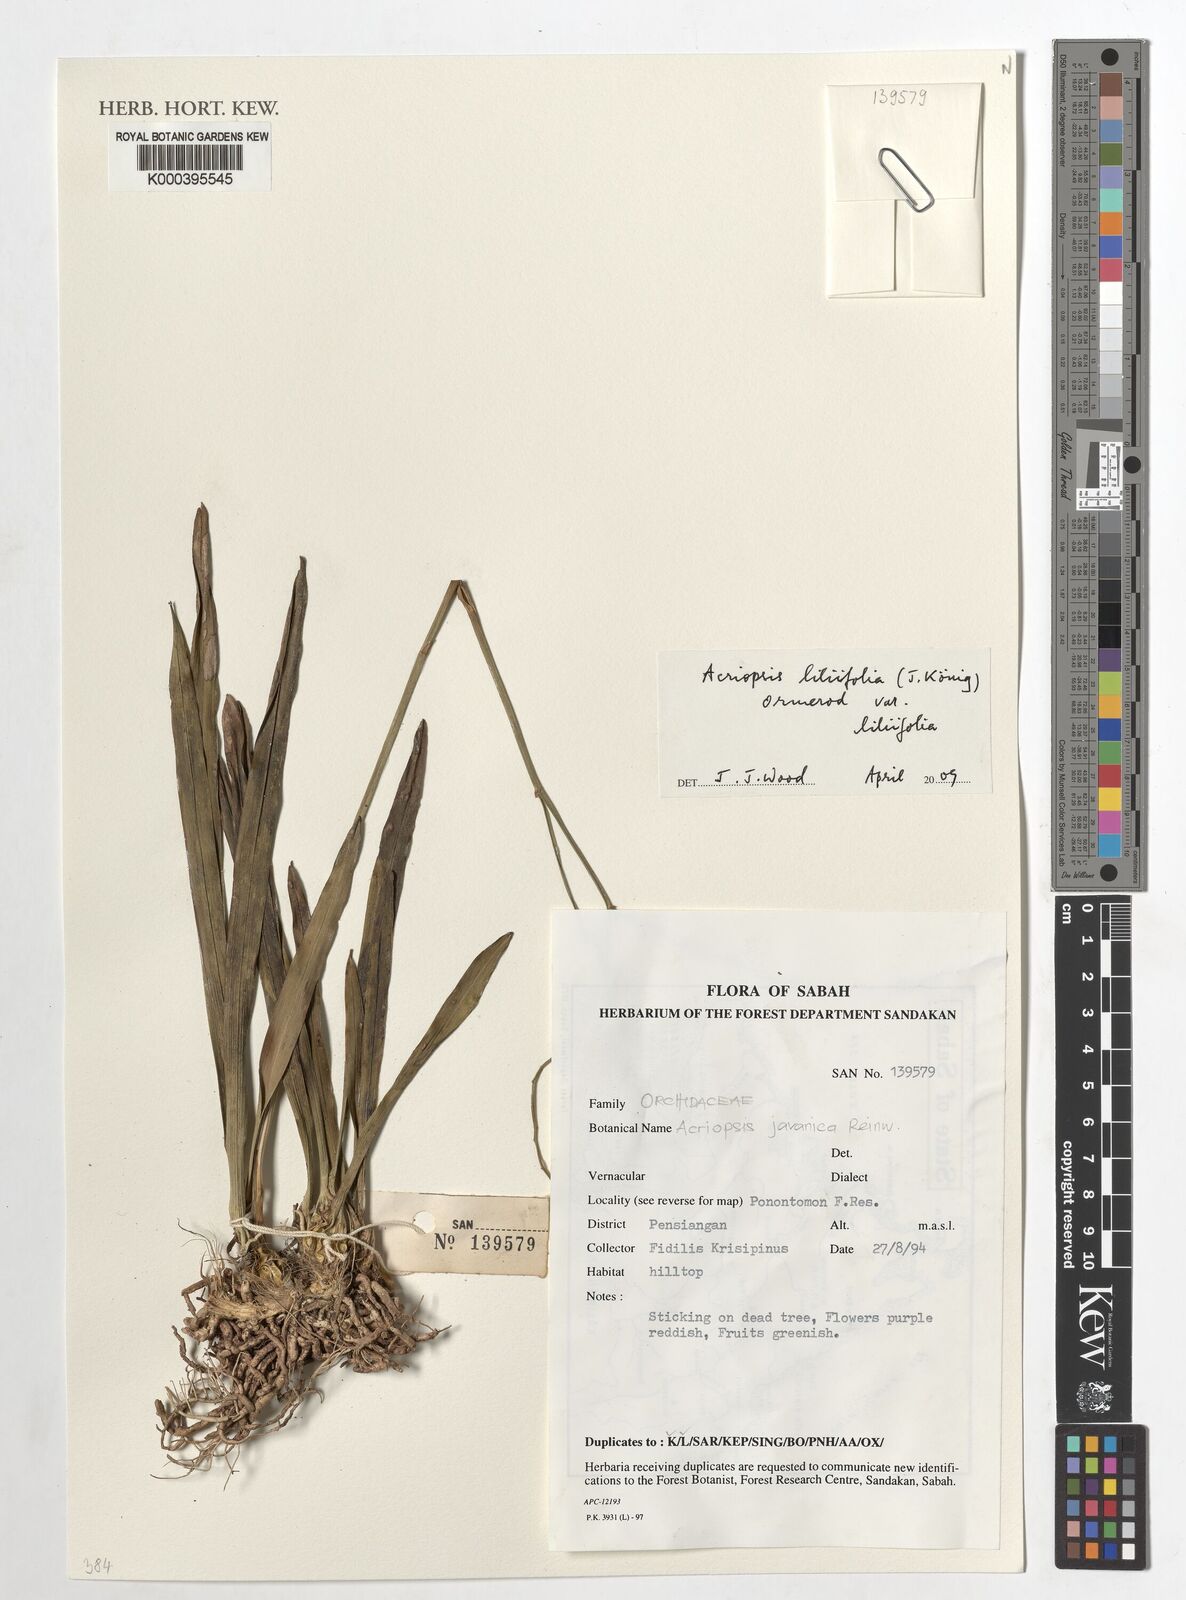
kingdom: Plantae
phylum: Tracheophyta
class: Liliopsida
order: Asparagales
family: Orchidaceae
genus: Acriopsis
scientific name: Acriopsis
